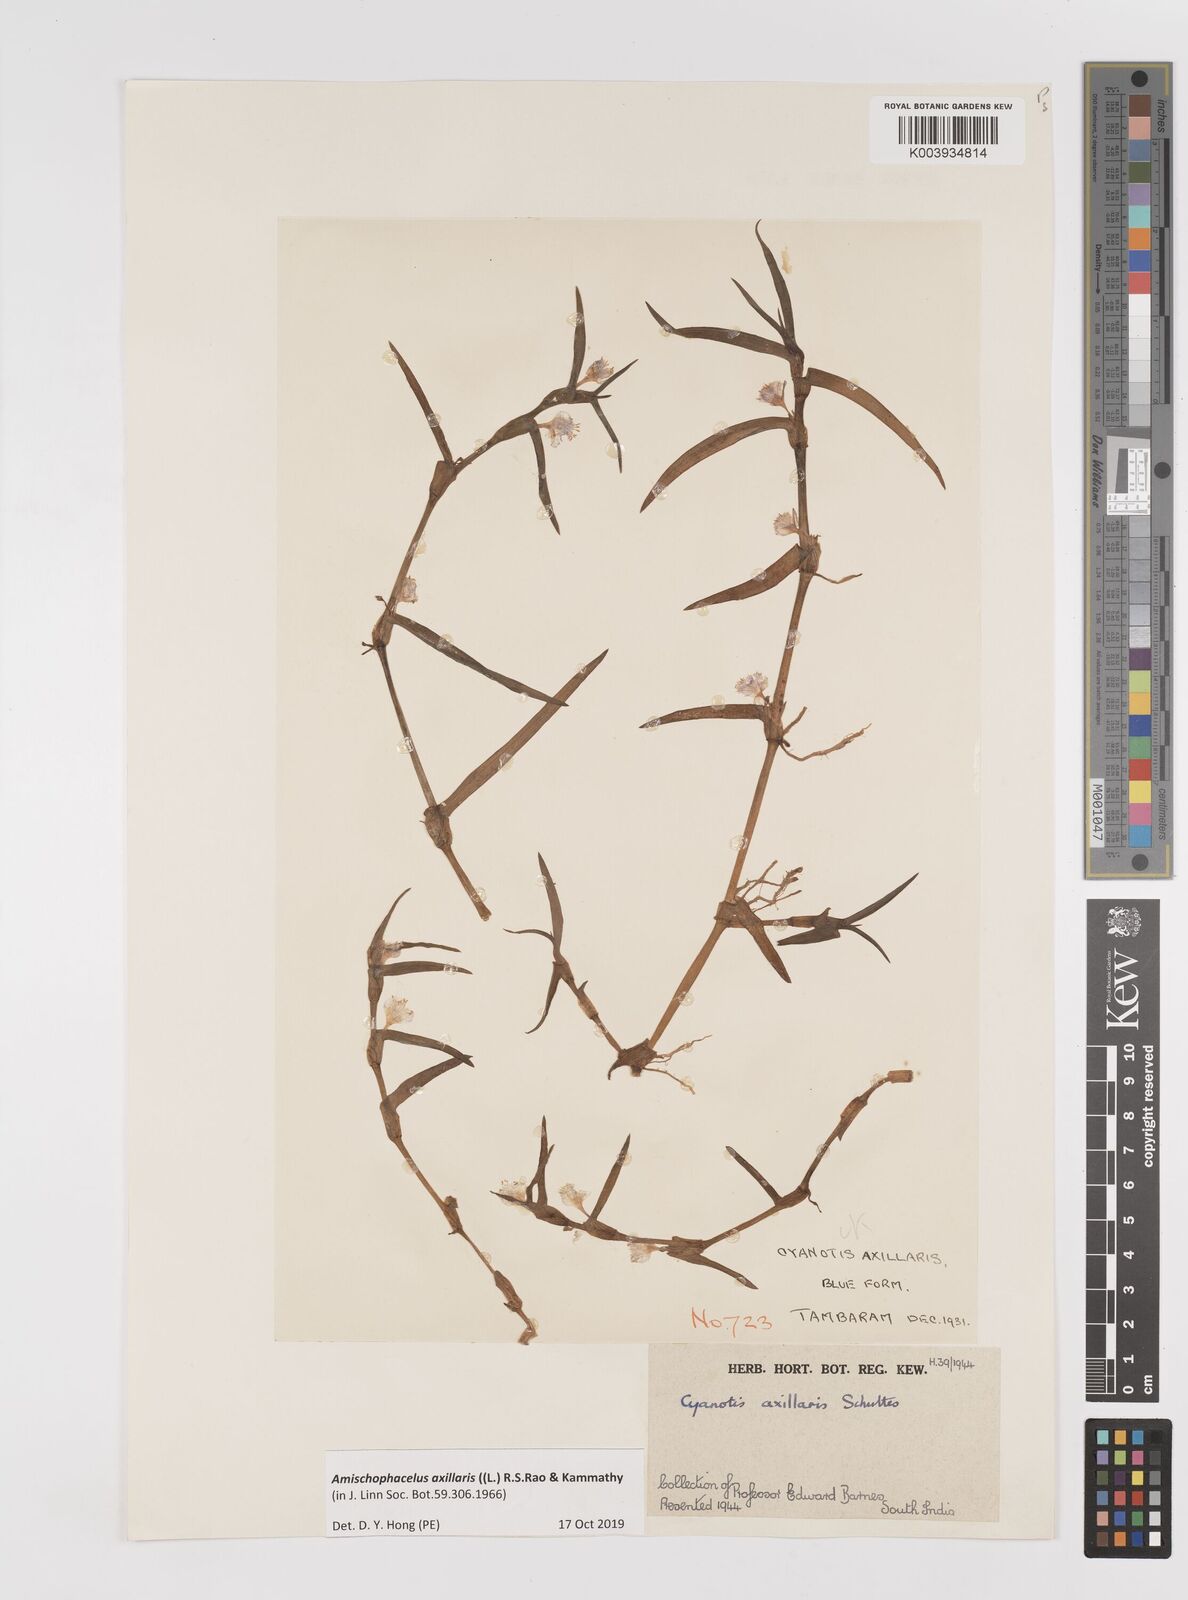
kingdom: Plantae
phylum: Tracheophyta
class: Liliopsida
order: Commelinales
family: Commelinaceae
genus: Cyanotis
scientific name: Cyanotis axillaris
